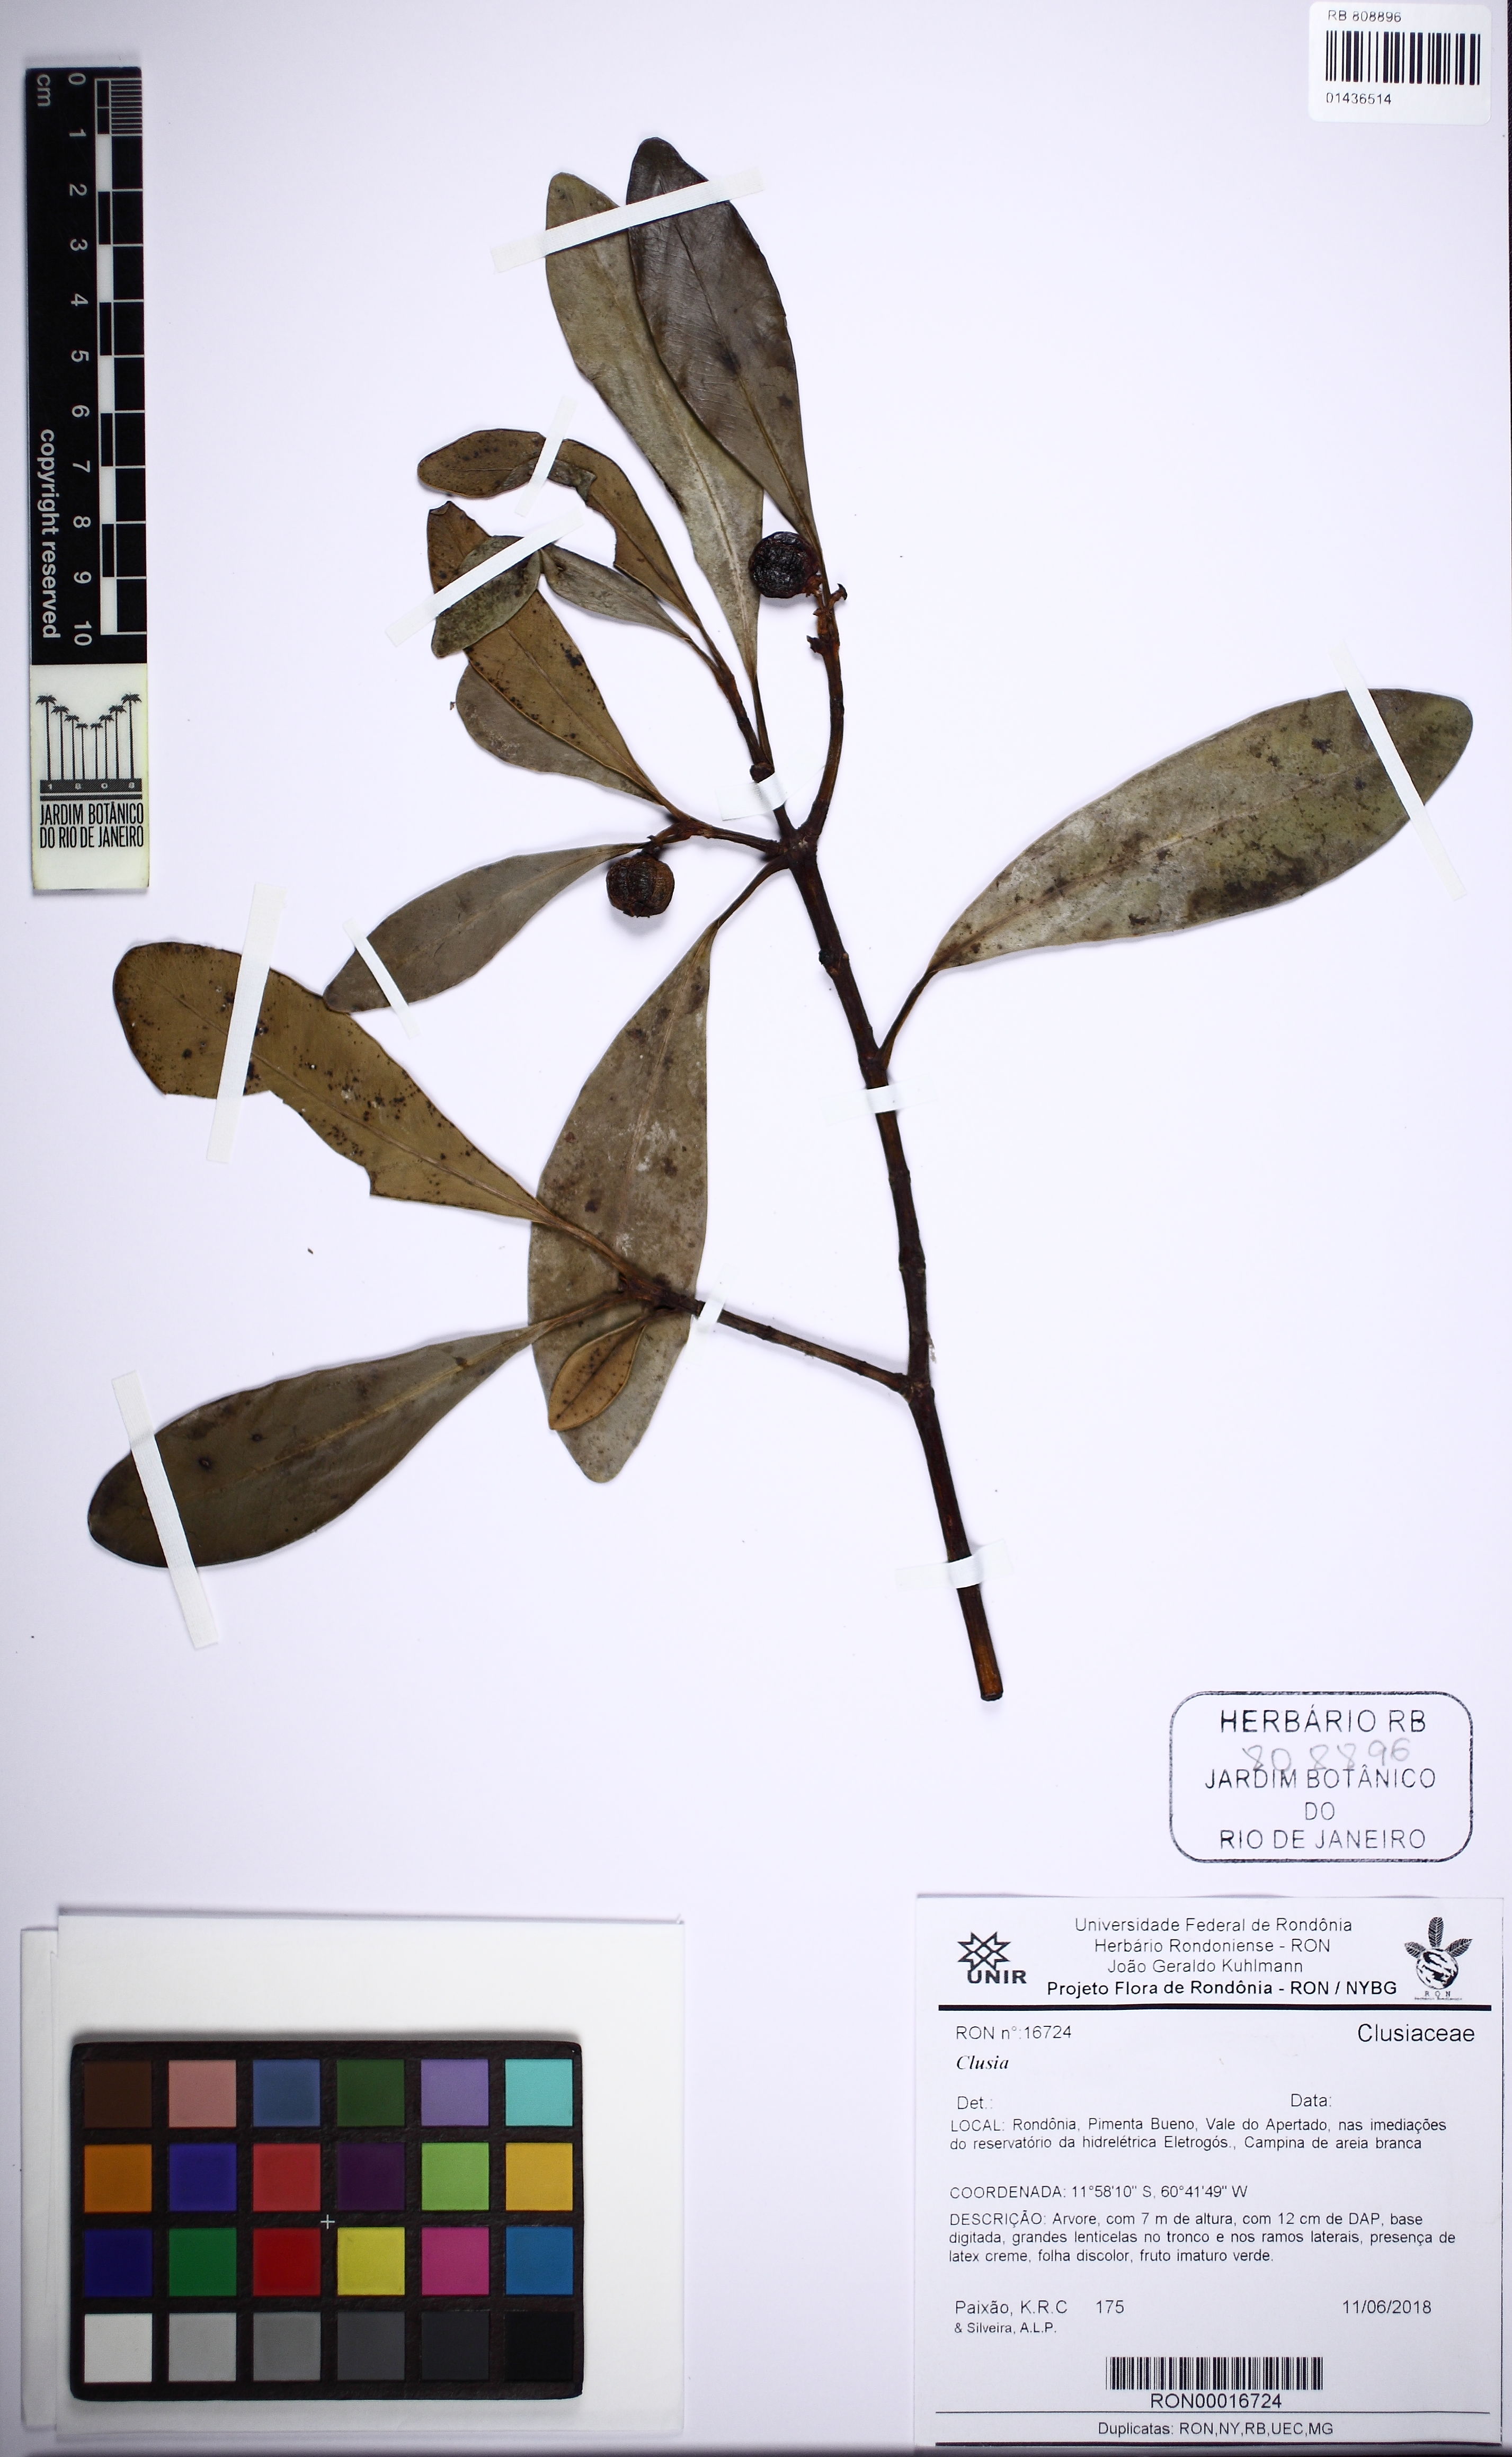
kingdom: Plantae
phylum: Tracheophyta
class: Magnoliopsida
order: Malpighiales
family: Clusiaceae
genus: Clusia
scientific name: Clusia
